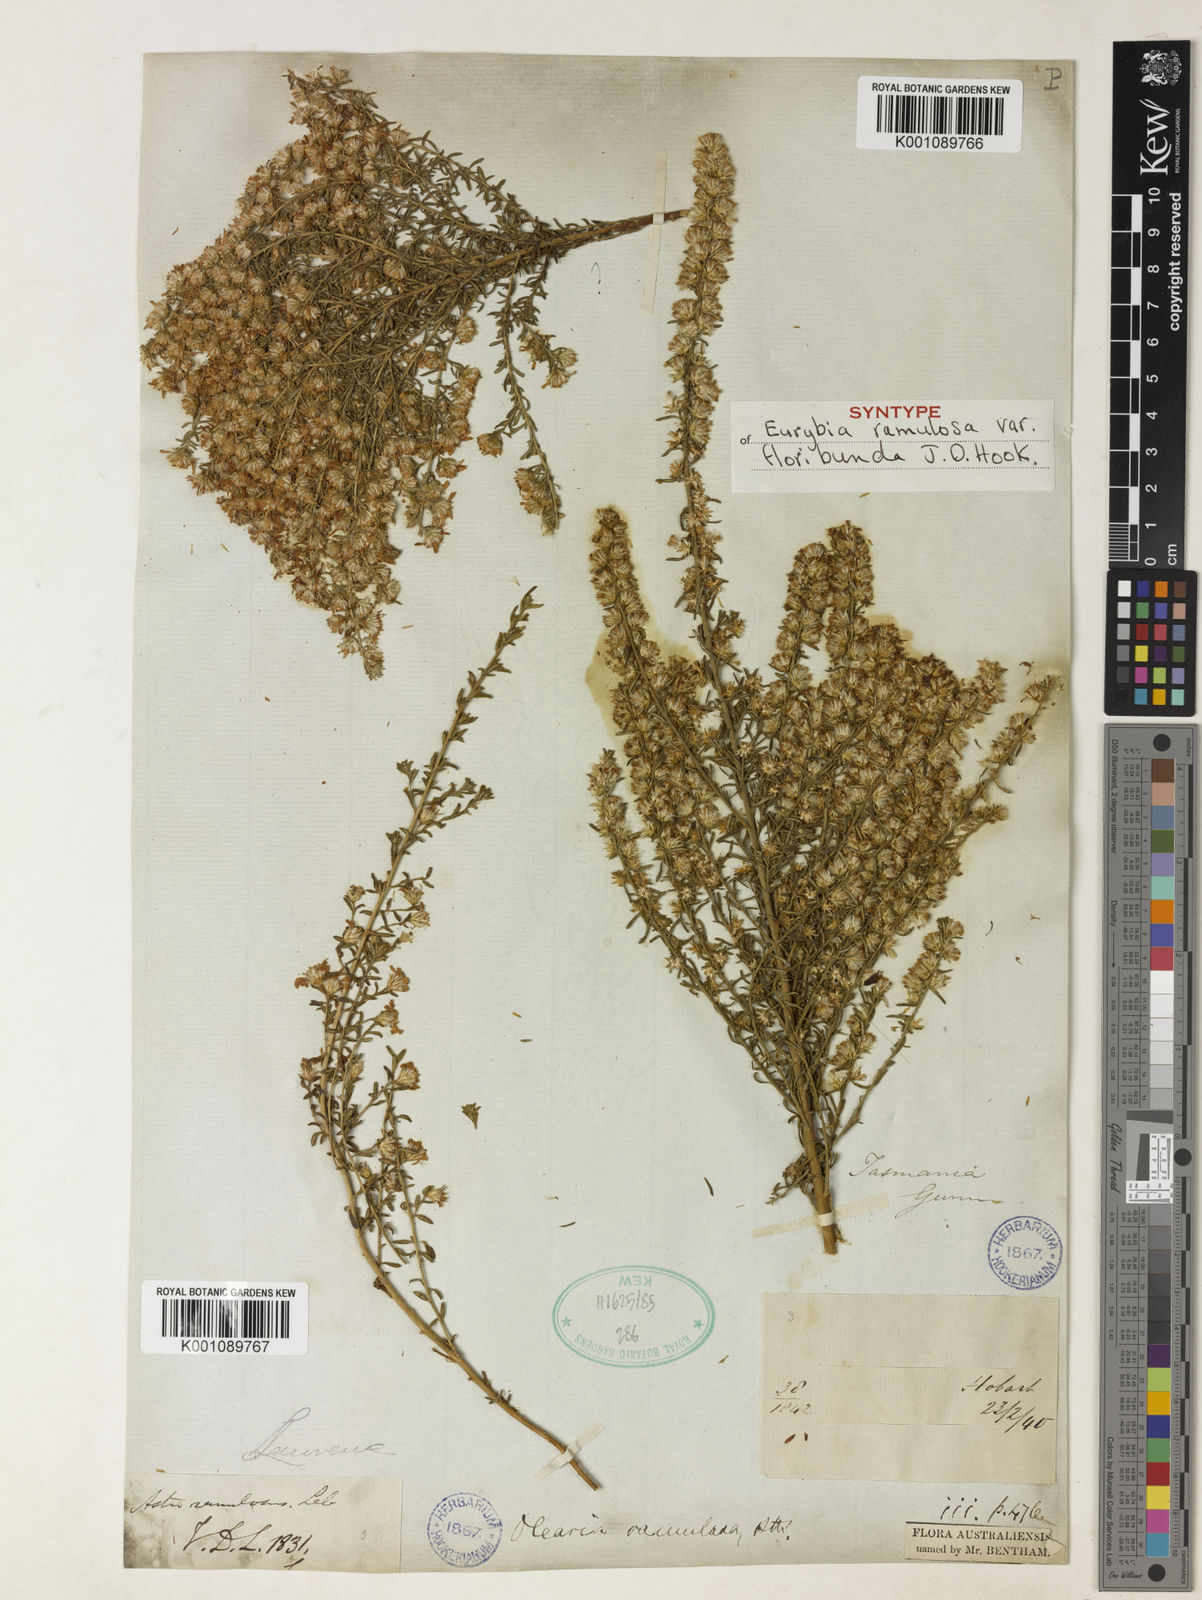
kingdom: Plantae
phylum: Tracheophyta
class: Magnoliopsida
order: Asterales
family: Asteraceae
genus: Olearia
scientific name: Olearia ramulosa
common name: Twiggy daisybush
